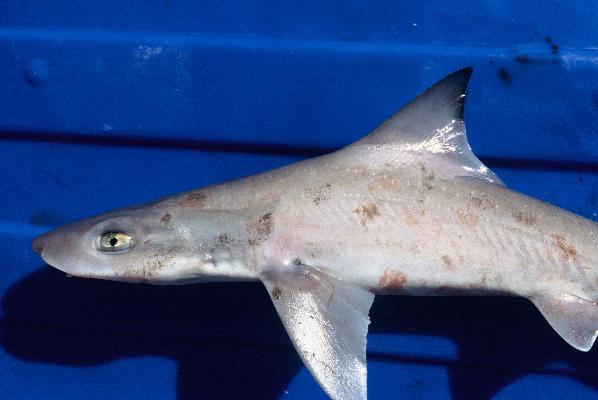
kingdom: Animalia
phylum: Chordata
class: Elasmobranchii
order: Carcharhiniformes
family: Triakidae
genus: Mustelus
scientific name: Mustelus palumbes
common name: Whitespotted smooth-hound
